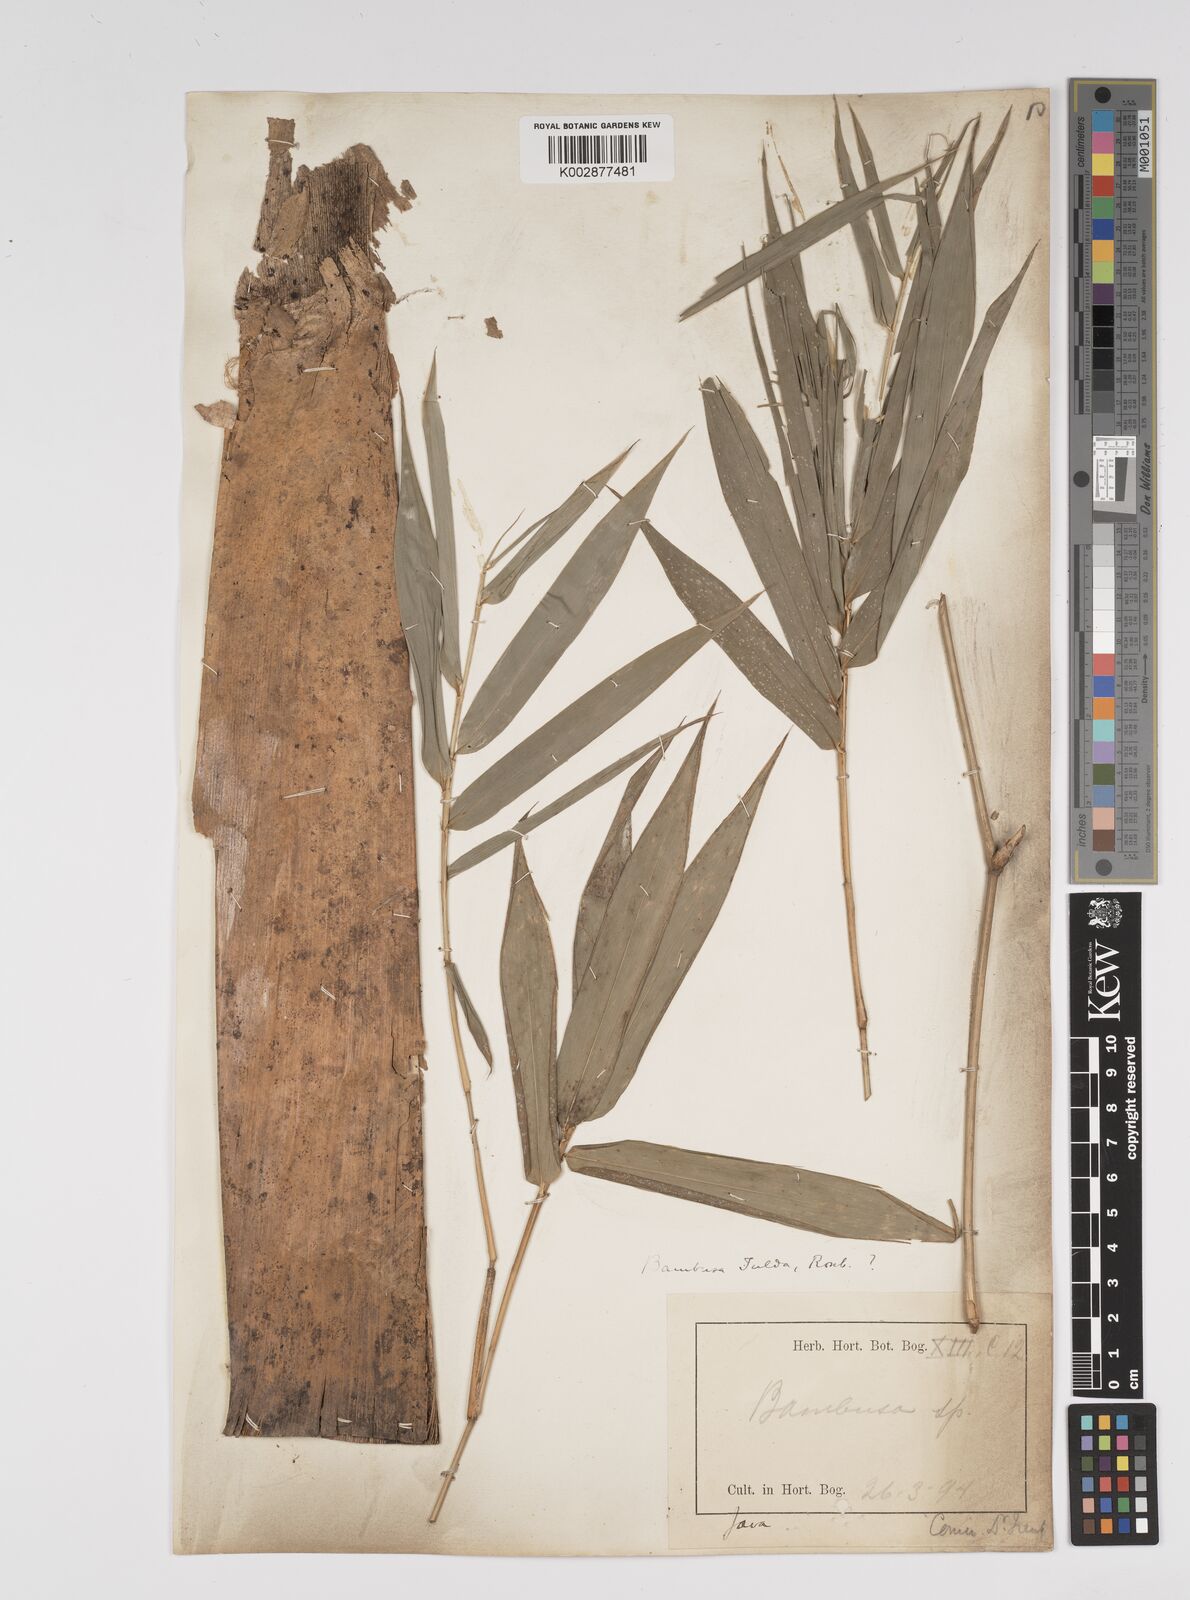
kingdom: Plantae
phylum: Tracheophyta
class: Liliopsida
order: Poales
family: Poaceae
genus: Bambusa
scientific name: Bambusa
